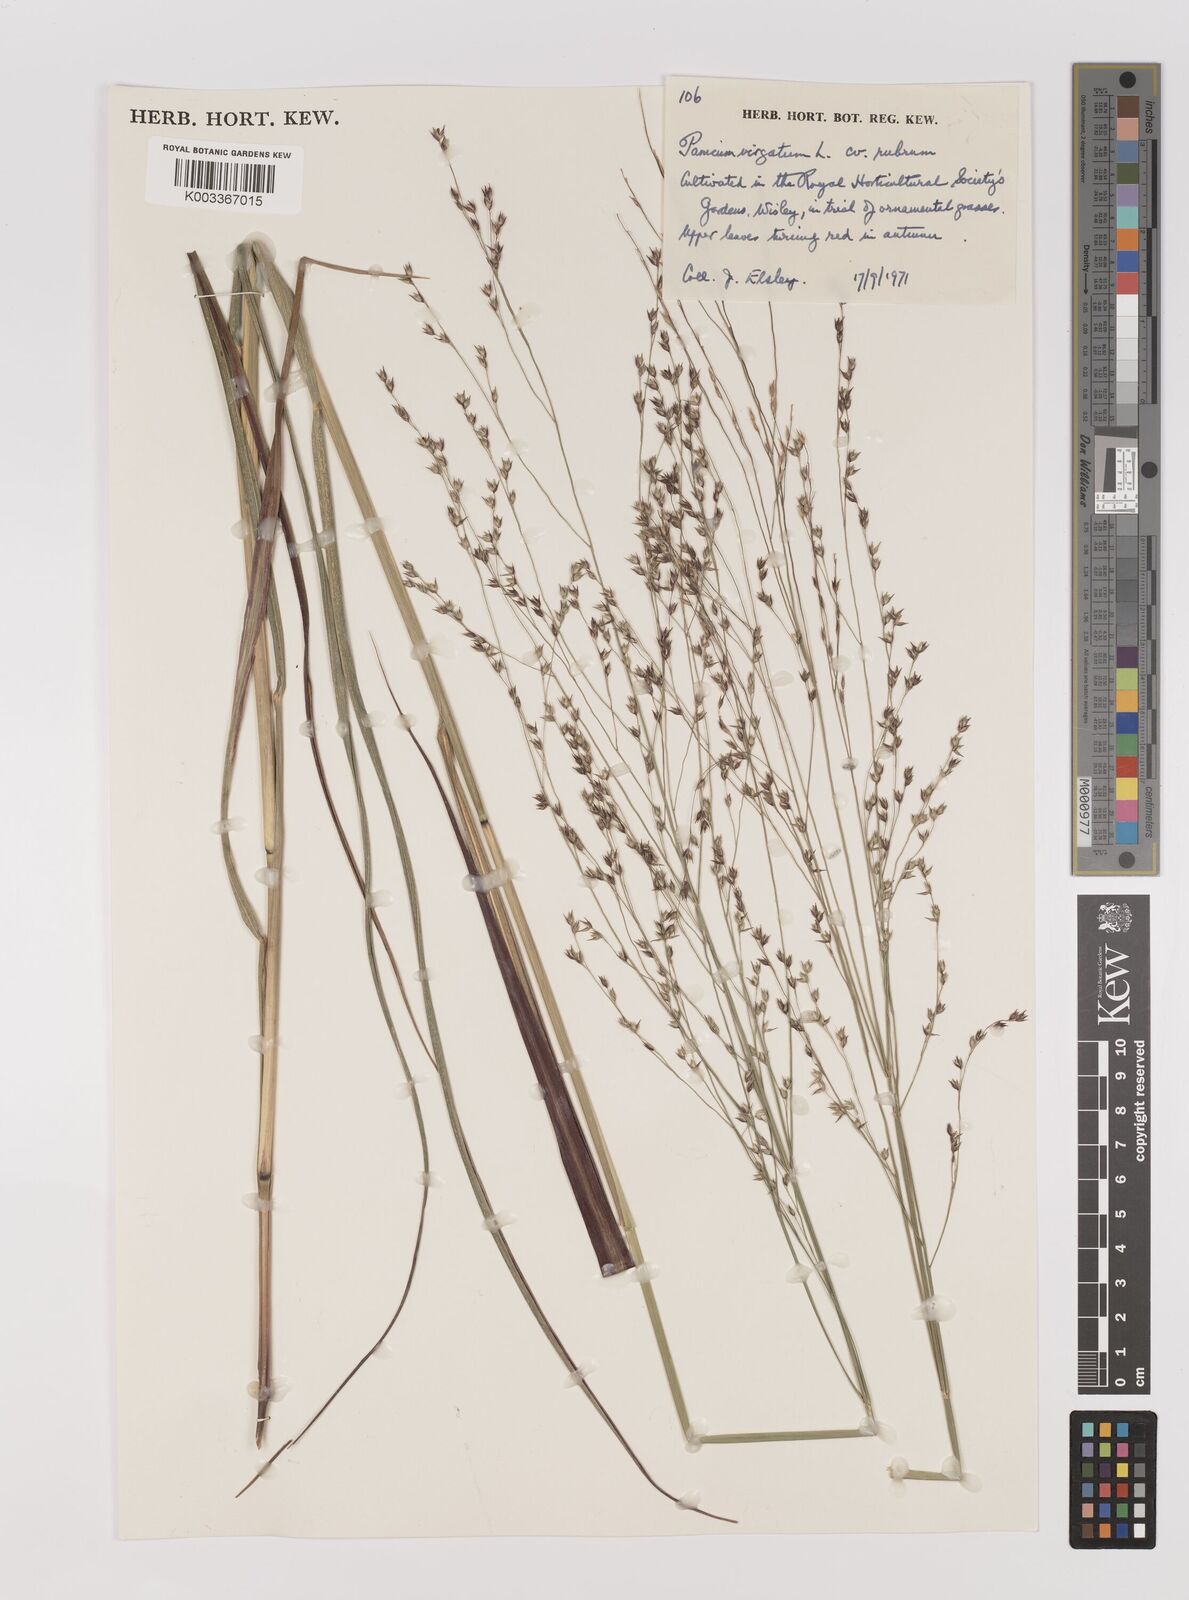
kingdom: Plantae
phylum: Tracheophyta
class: Liliopsida
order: Poales
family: Poaceae
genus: Panicum
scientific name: Panicum virgatum
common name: Switchgrass
